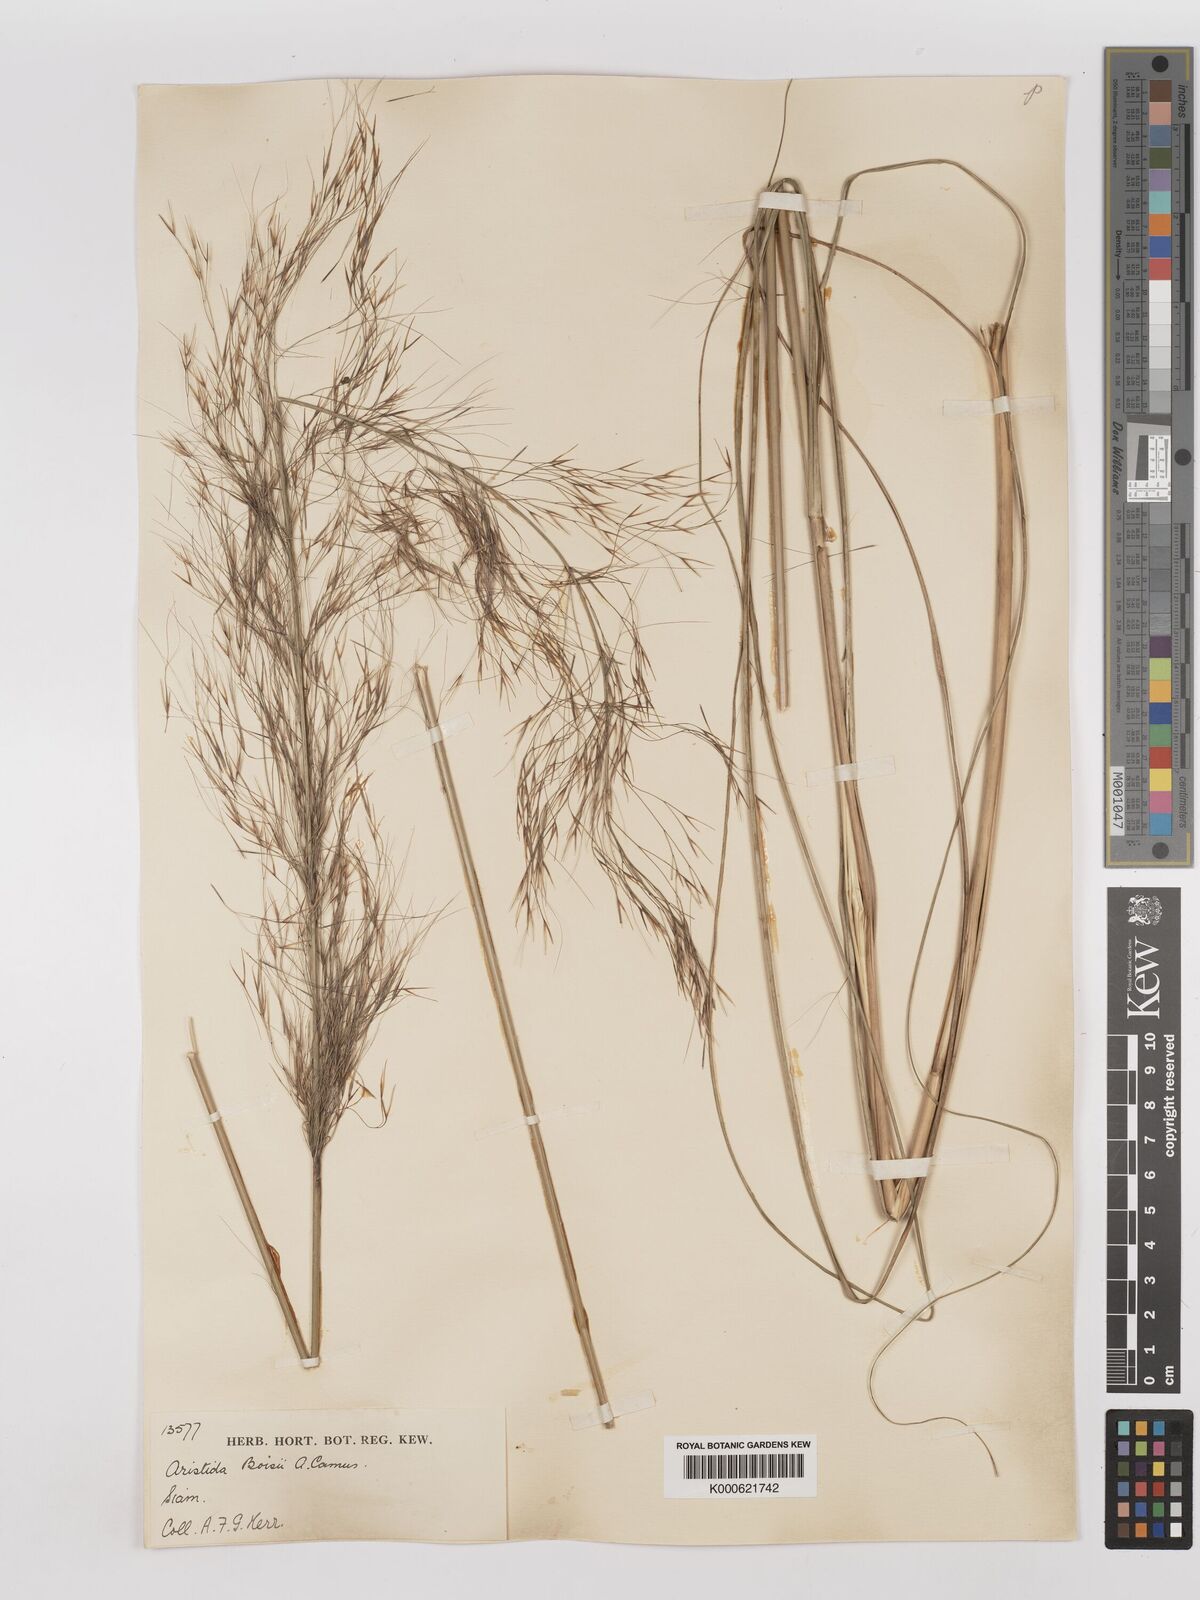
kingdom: Plantae
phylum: Tracheophyta
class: Liliopsida
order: Poales
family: Poaceae
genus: Aristida
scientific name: Aristida culionensis
